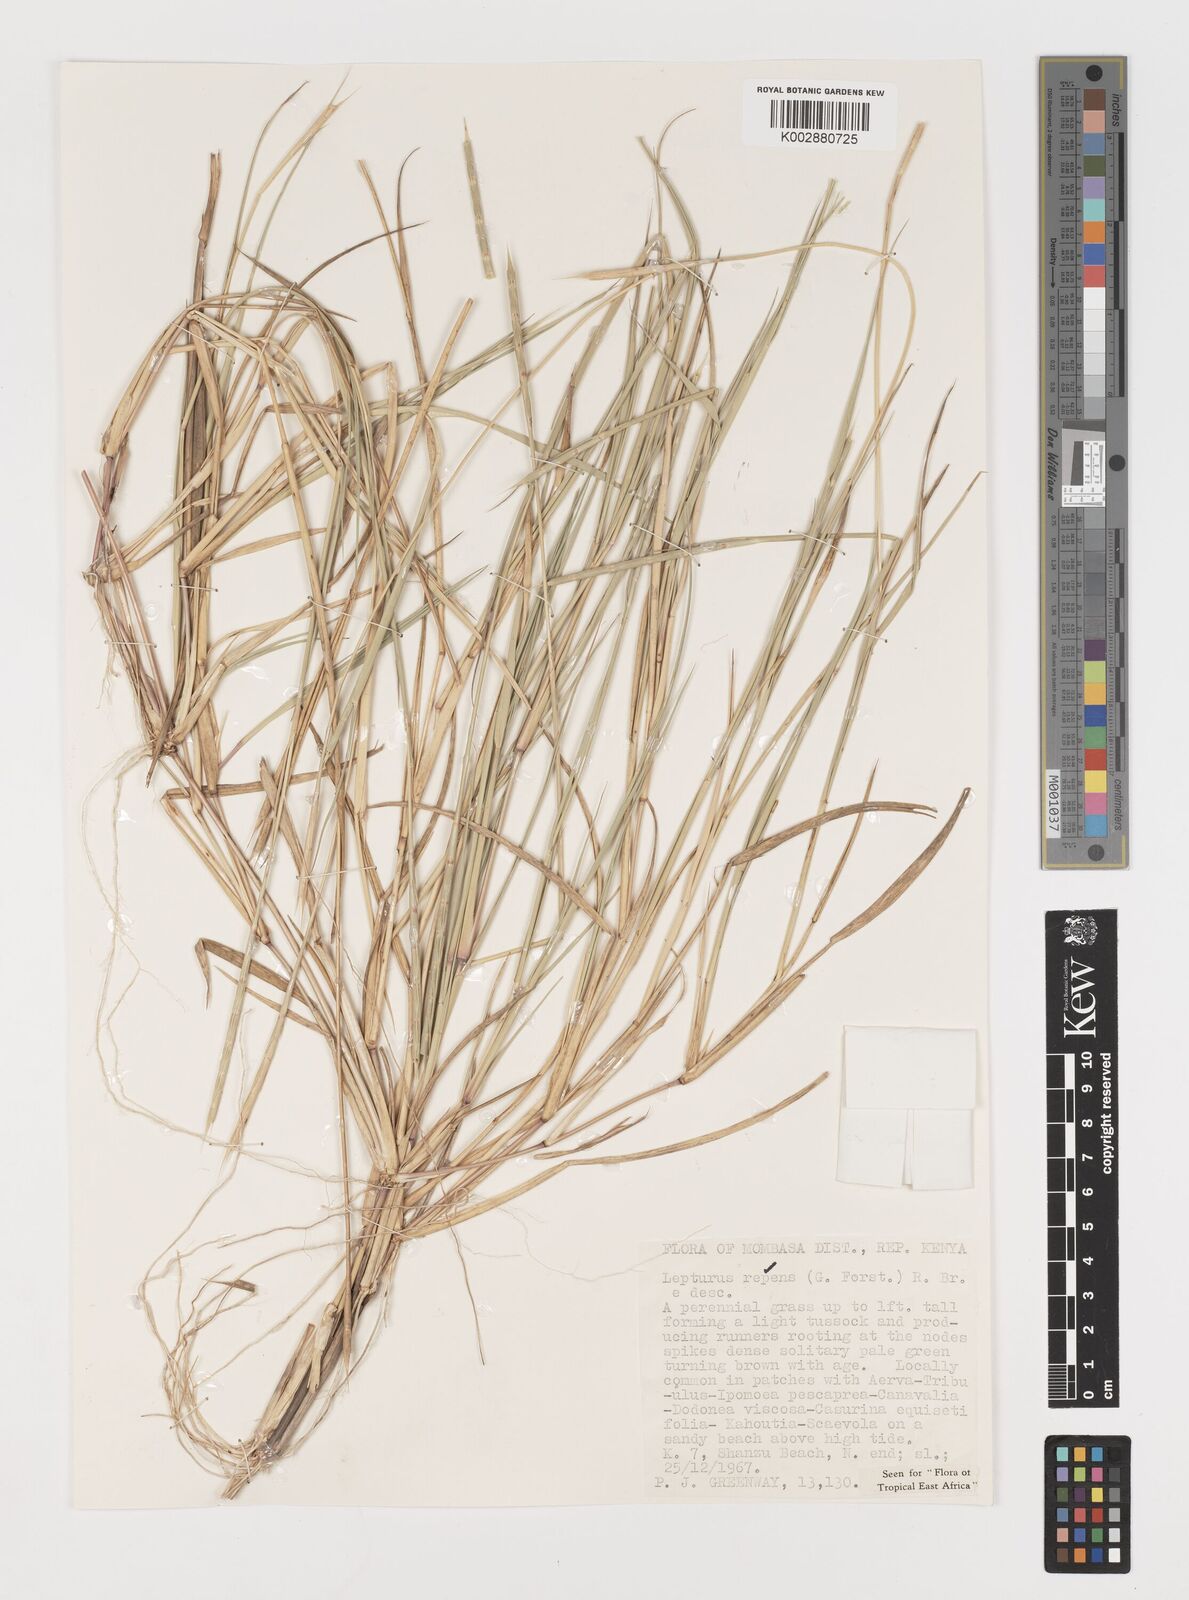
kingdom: Plantae
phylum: Tracheophyta
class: Liliopsida
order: Poales
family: Poaceae
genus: Lepturus
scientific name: Lepturus repens
